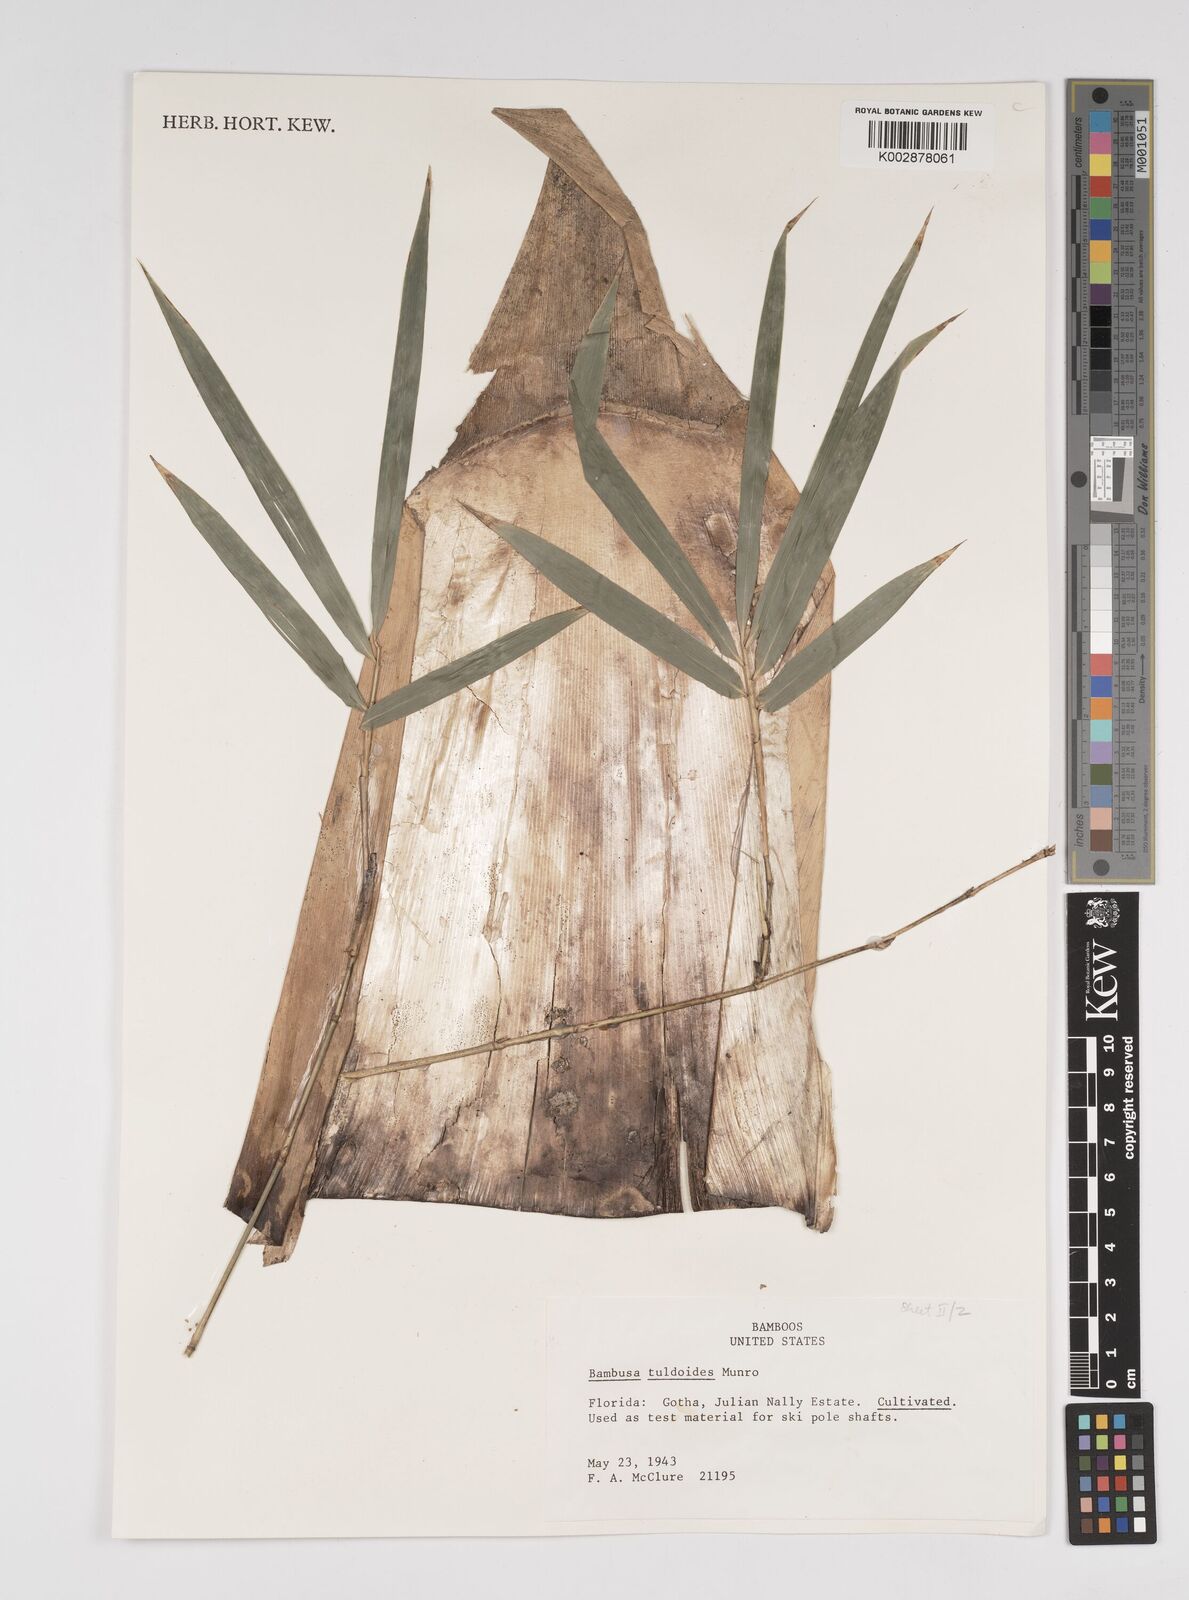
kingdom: Plantae
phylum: Tracheophyta
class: Liliopsida
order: Poales
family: Poaceae
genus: Bambusa
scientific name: Bambusa tuldoides
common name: Verdant bamboo
